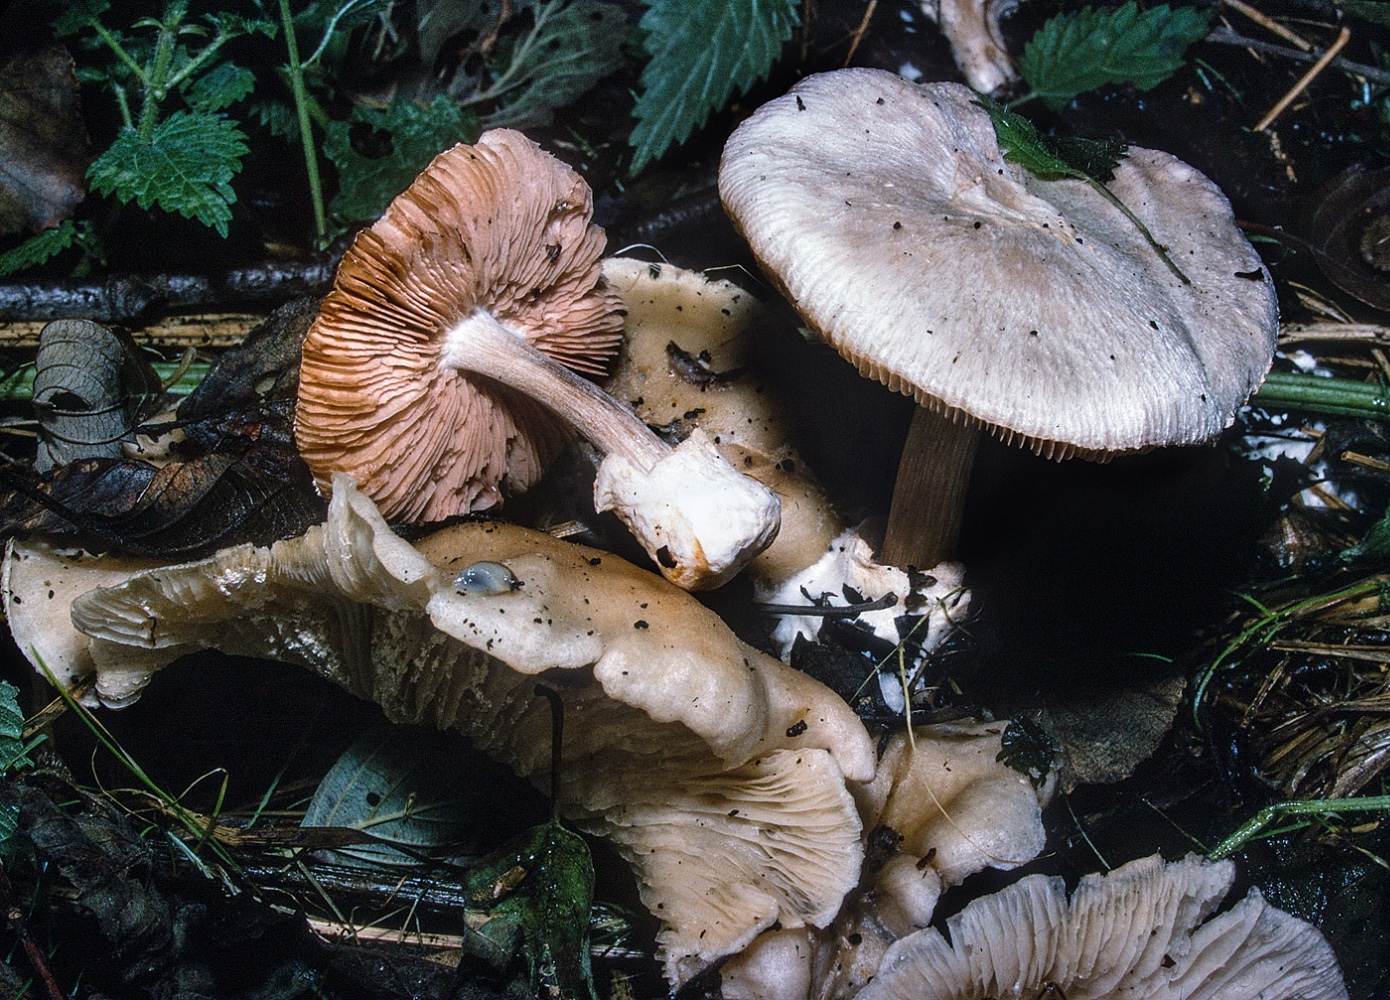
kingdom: Fungi
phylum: Basidiomycota
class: Agaricomycetes
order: Agaricales
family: Pluteaceae
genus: Volvariella
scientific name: Volvariella surrecta
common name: snyltende posesvamp
